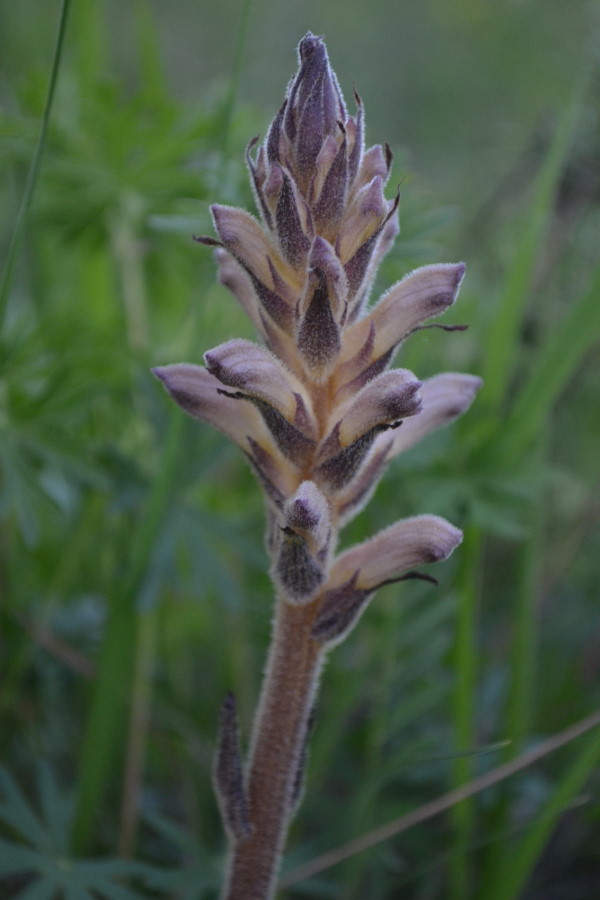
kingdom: Plantae
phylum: Tracheophyta
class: Magnoliopsida
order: Lamiales
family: Orobanchaceae
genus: Orobanche
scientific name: Orobanche
